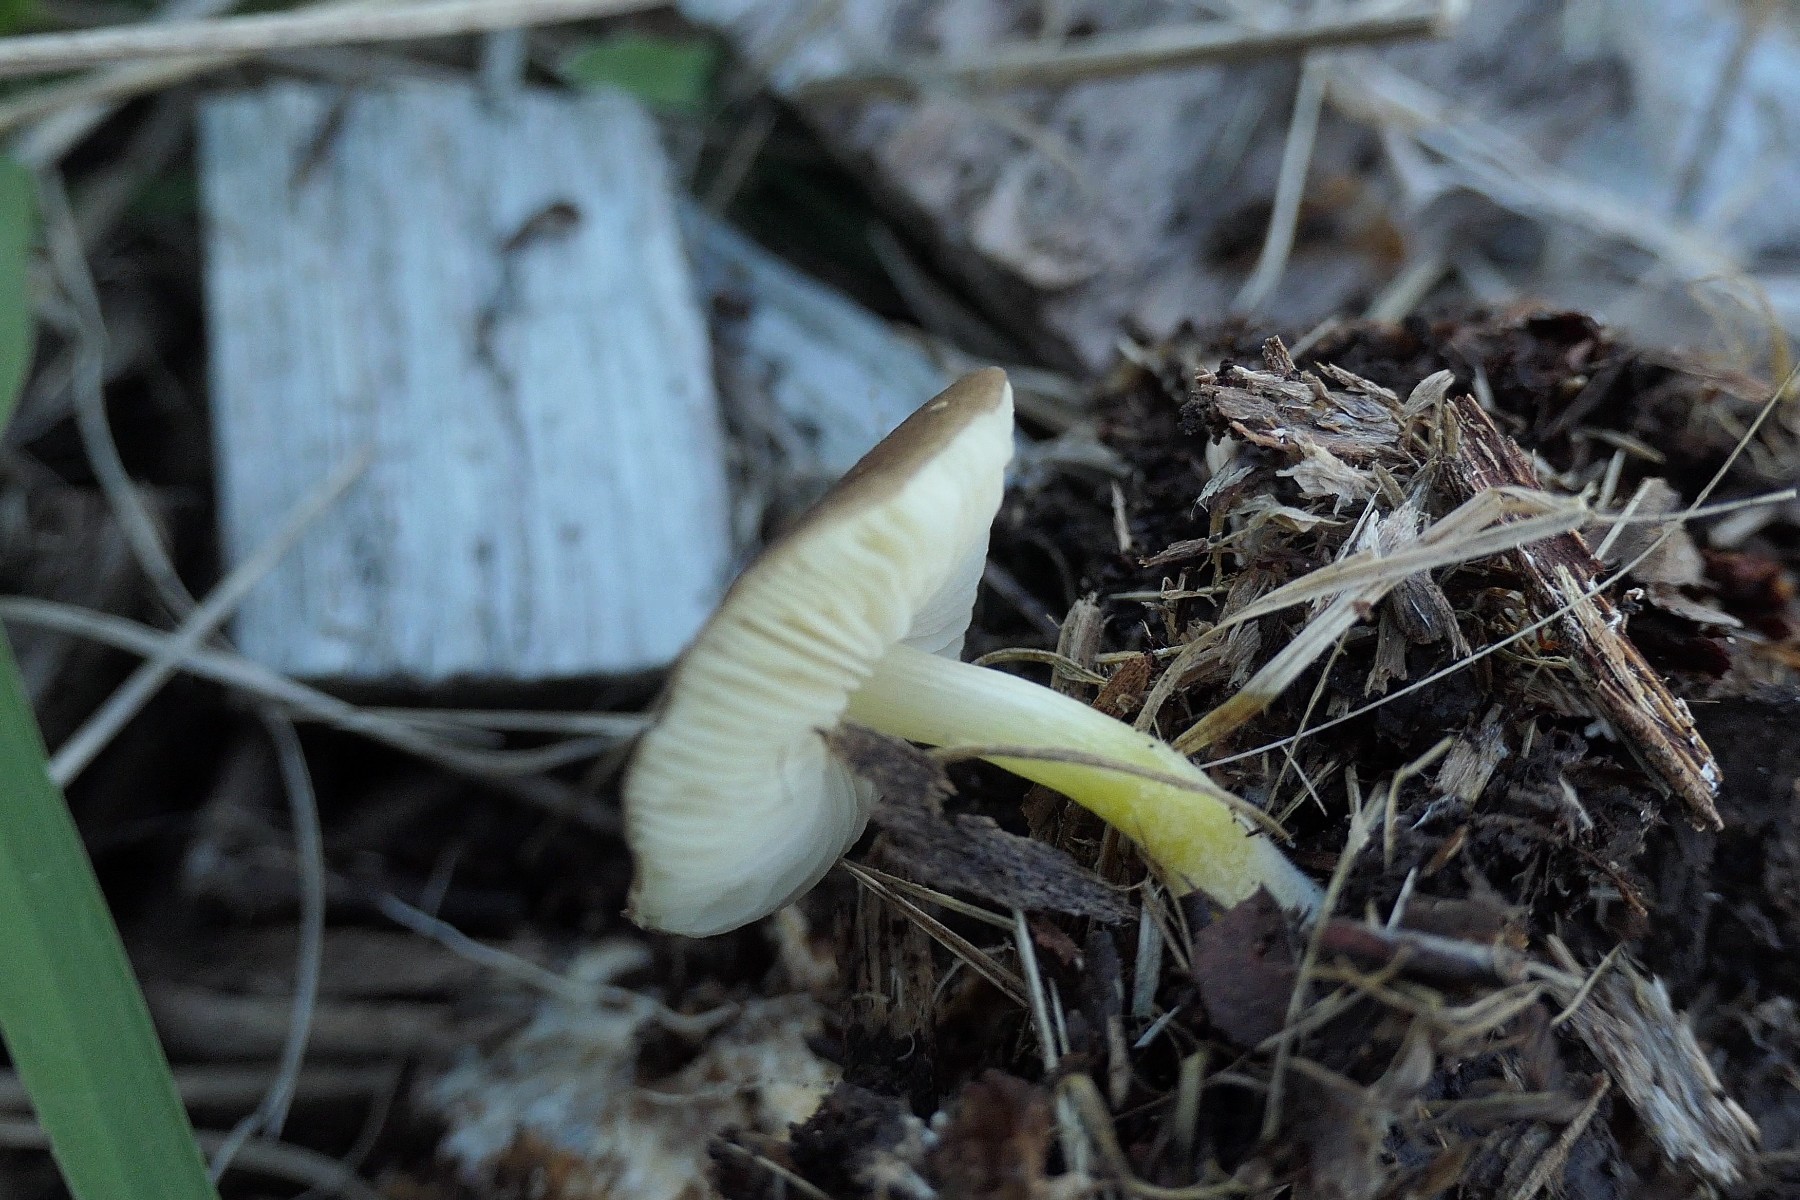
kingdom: Fungi
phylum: Basidiomycota
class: Agaricomycetes
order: Agaricales
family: Pluteaceae
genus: Pluteus
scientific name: Pluteus romellii
